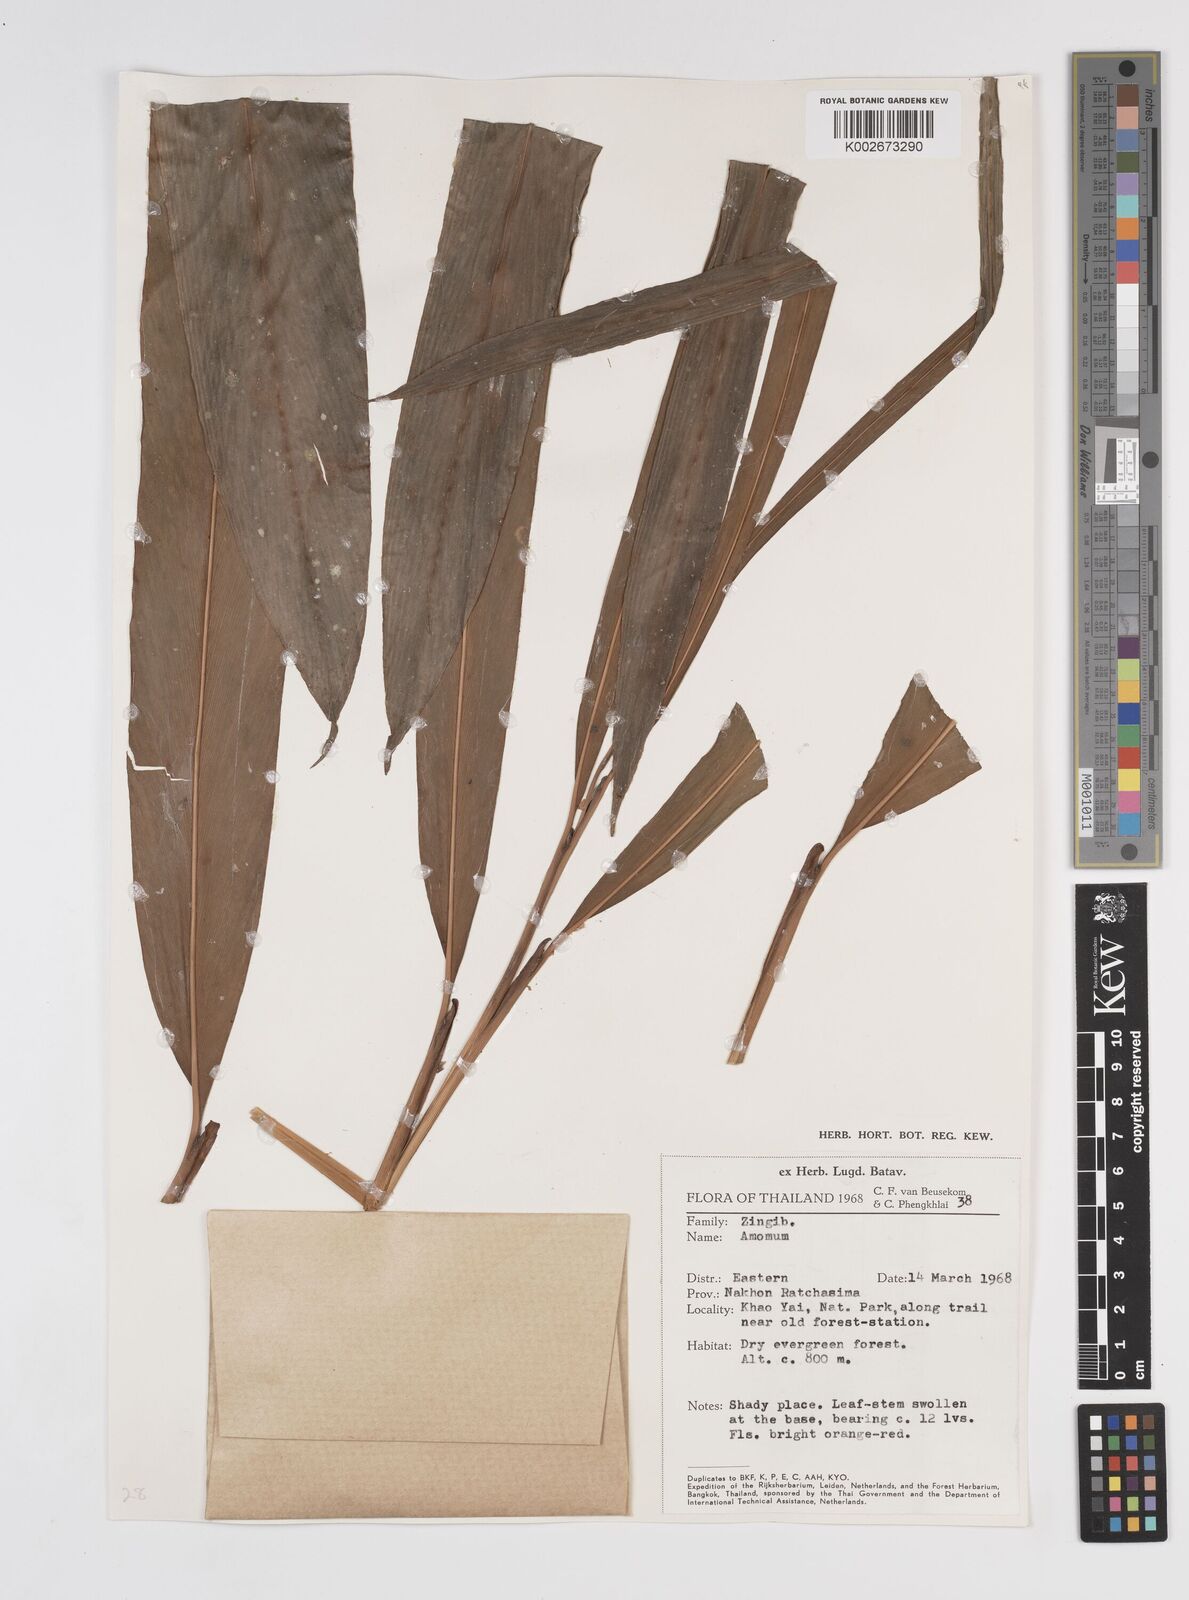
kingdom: Plantae
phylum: Tracheophyta
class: Liliopsida
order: Zingiberales
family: Zingiberaceae
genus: Amomum
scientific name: Amomum
